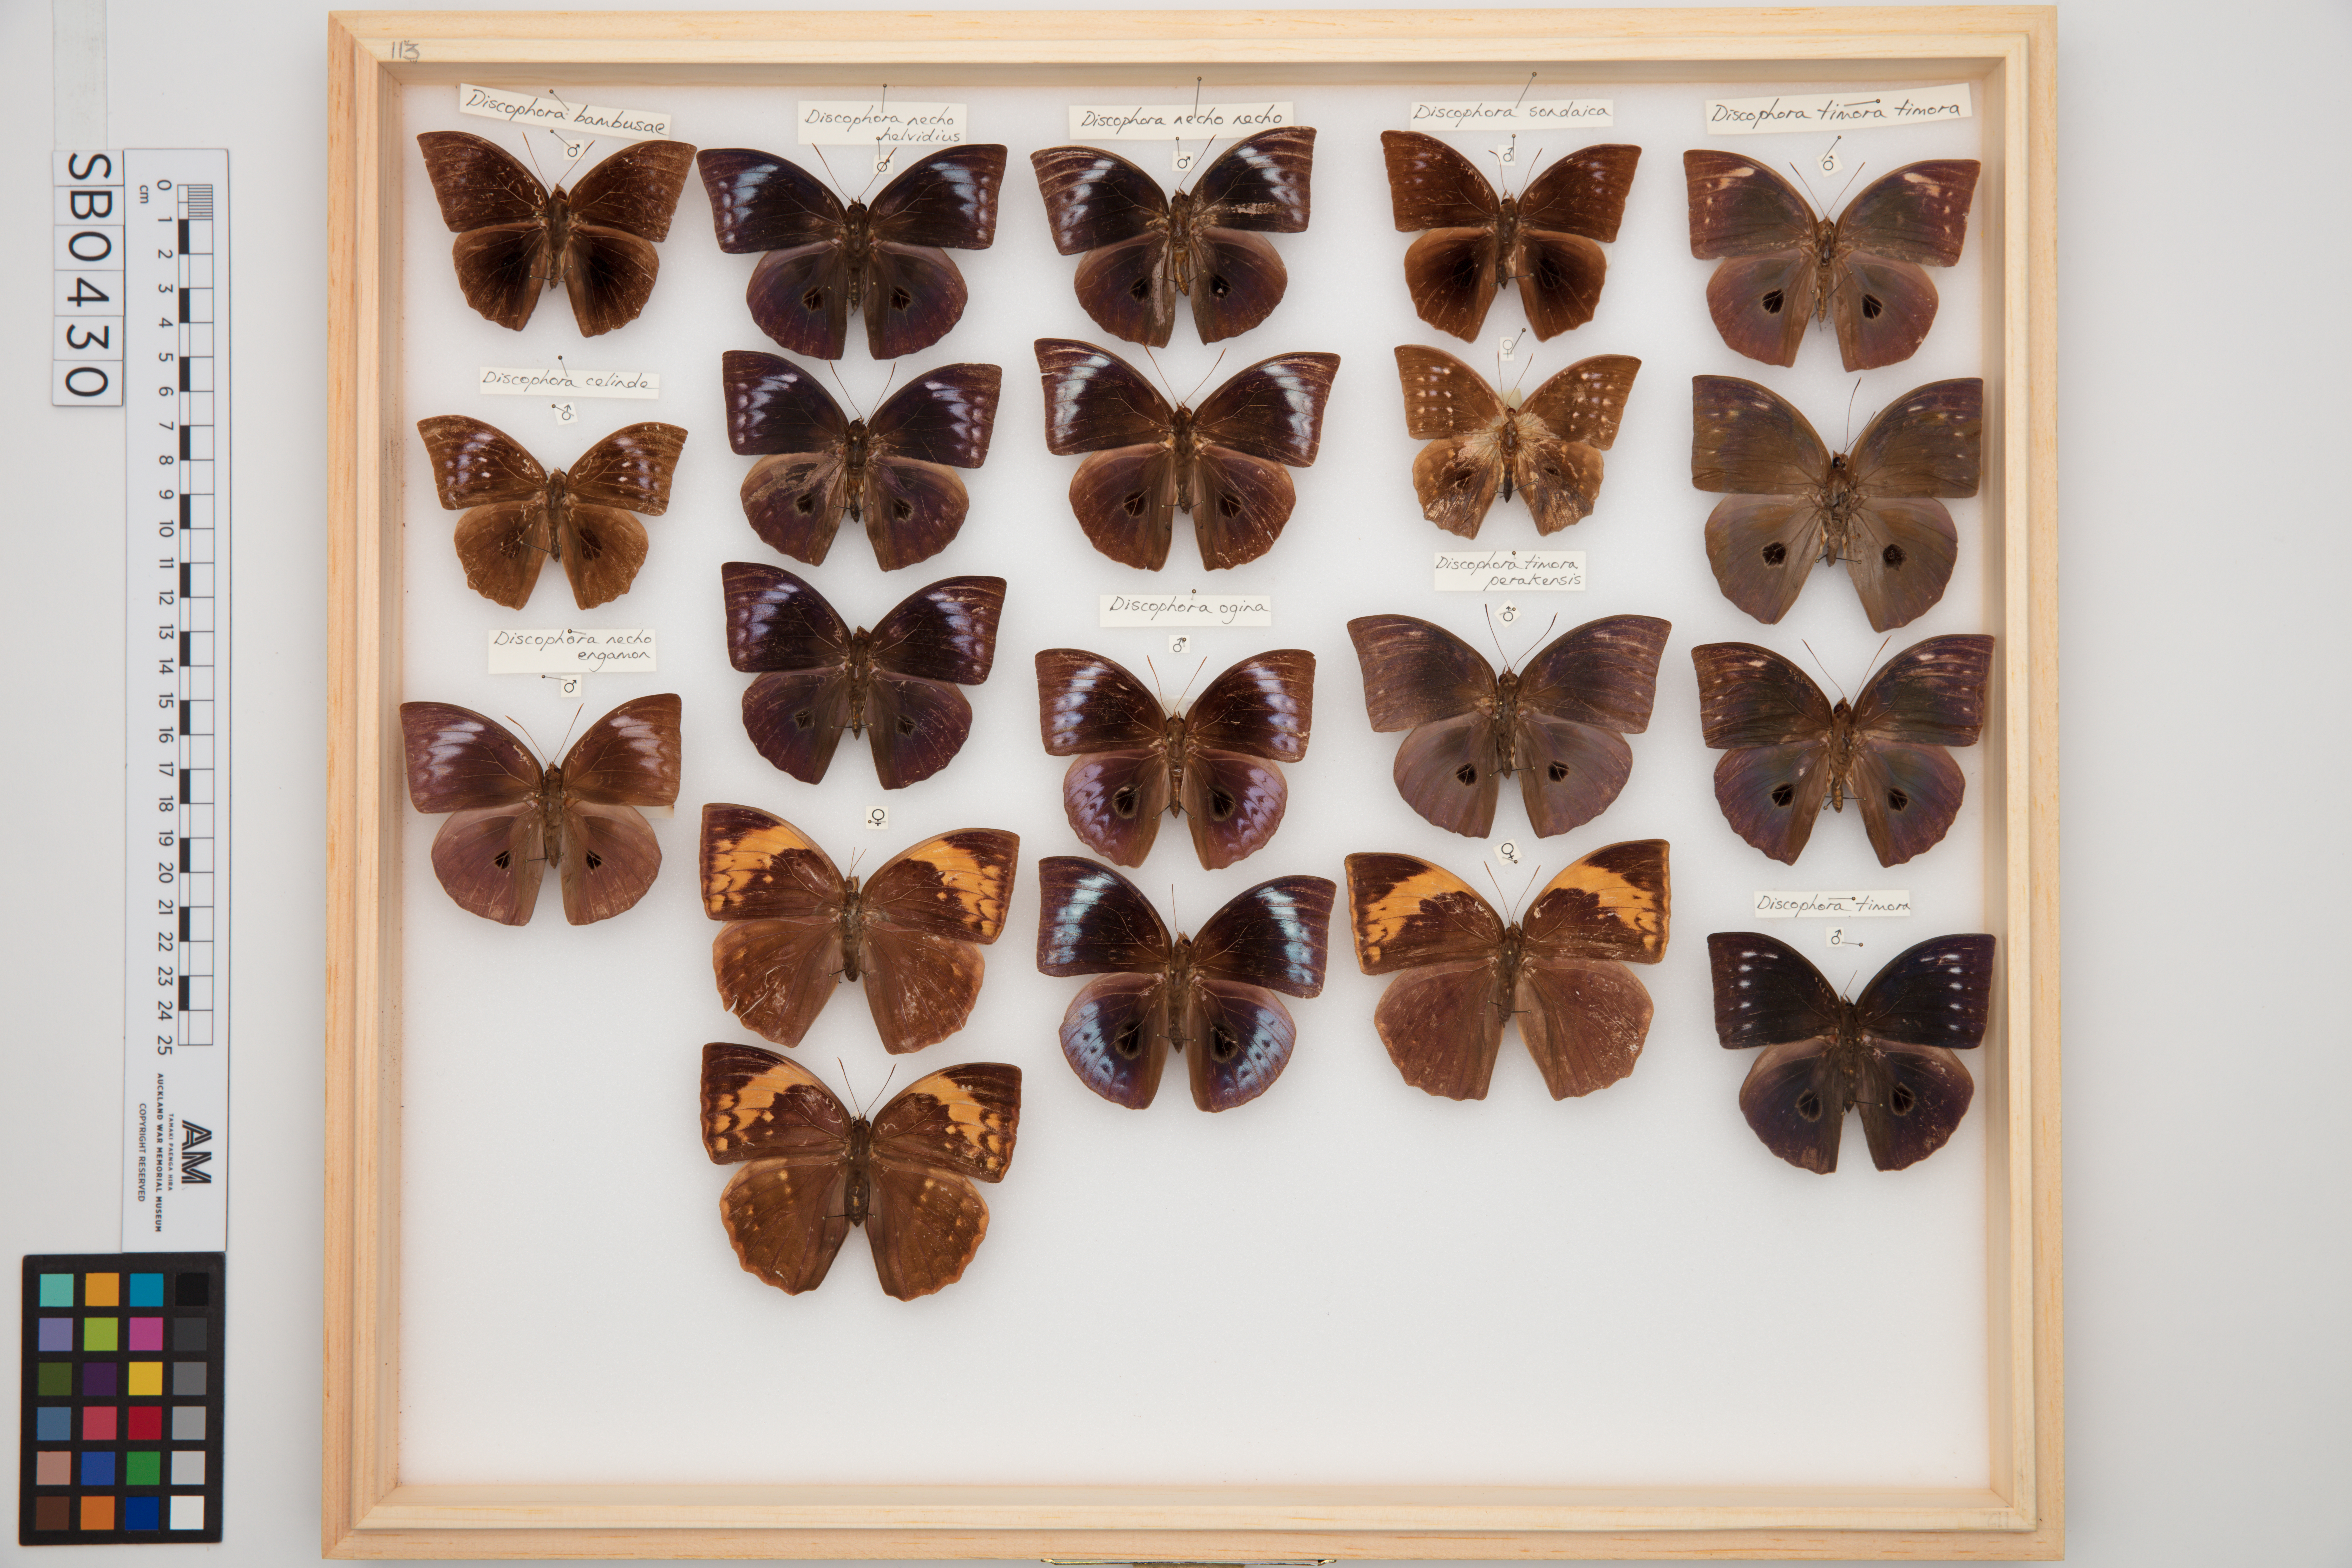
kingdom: Animalia
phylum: Arthropoda
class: Insecta
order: Lepidoptera
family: Nymphalidae
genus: Discophora
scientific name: Discophora timora
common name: Great duffer
